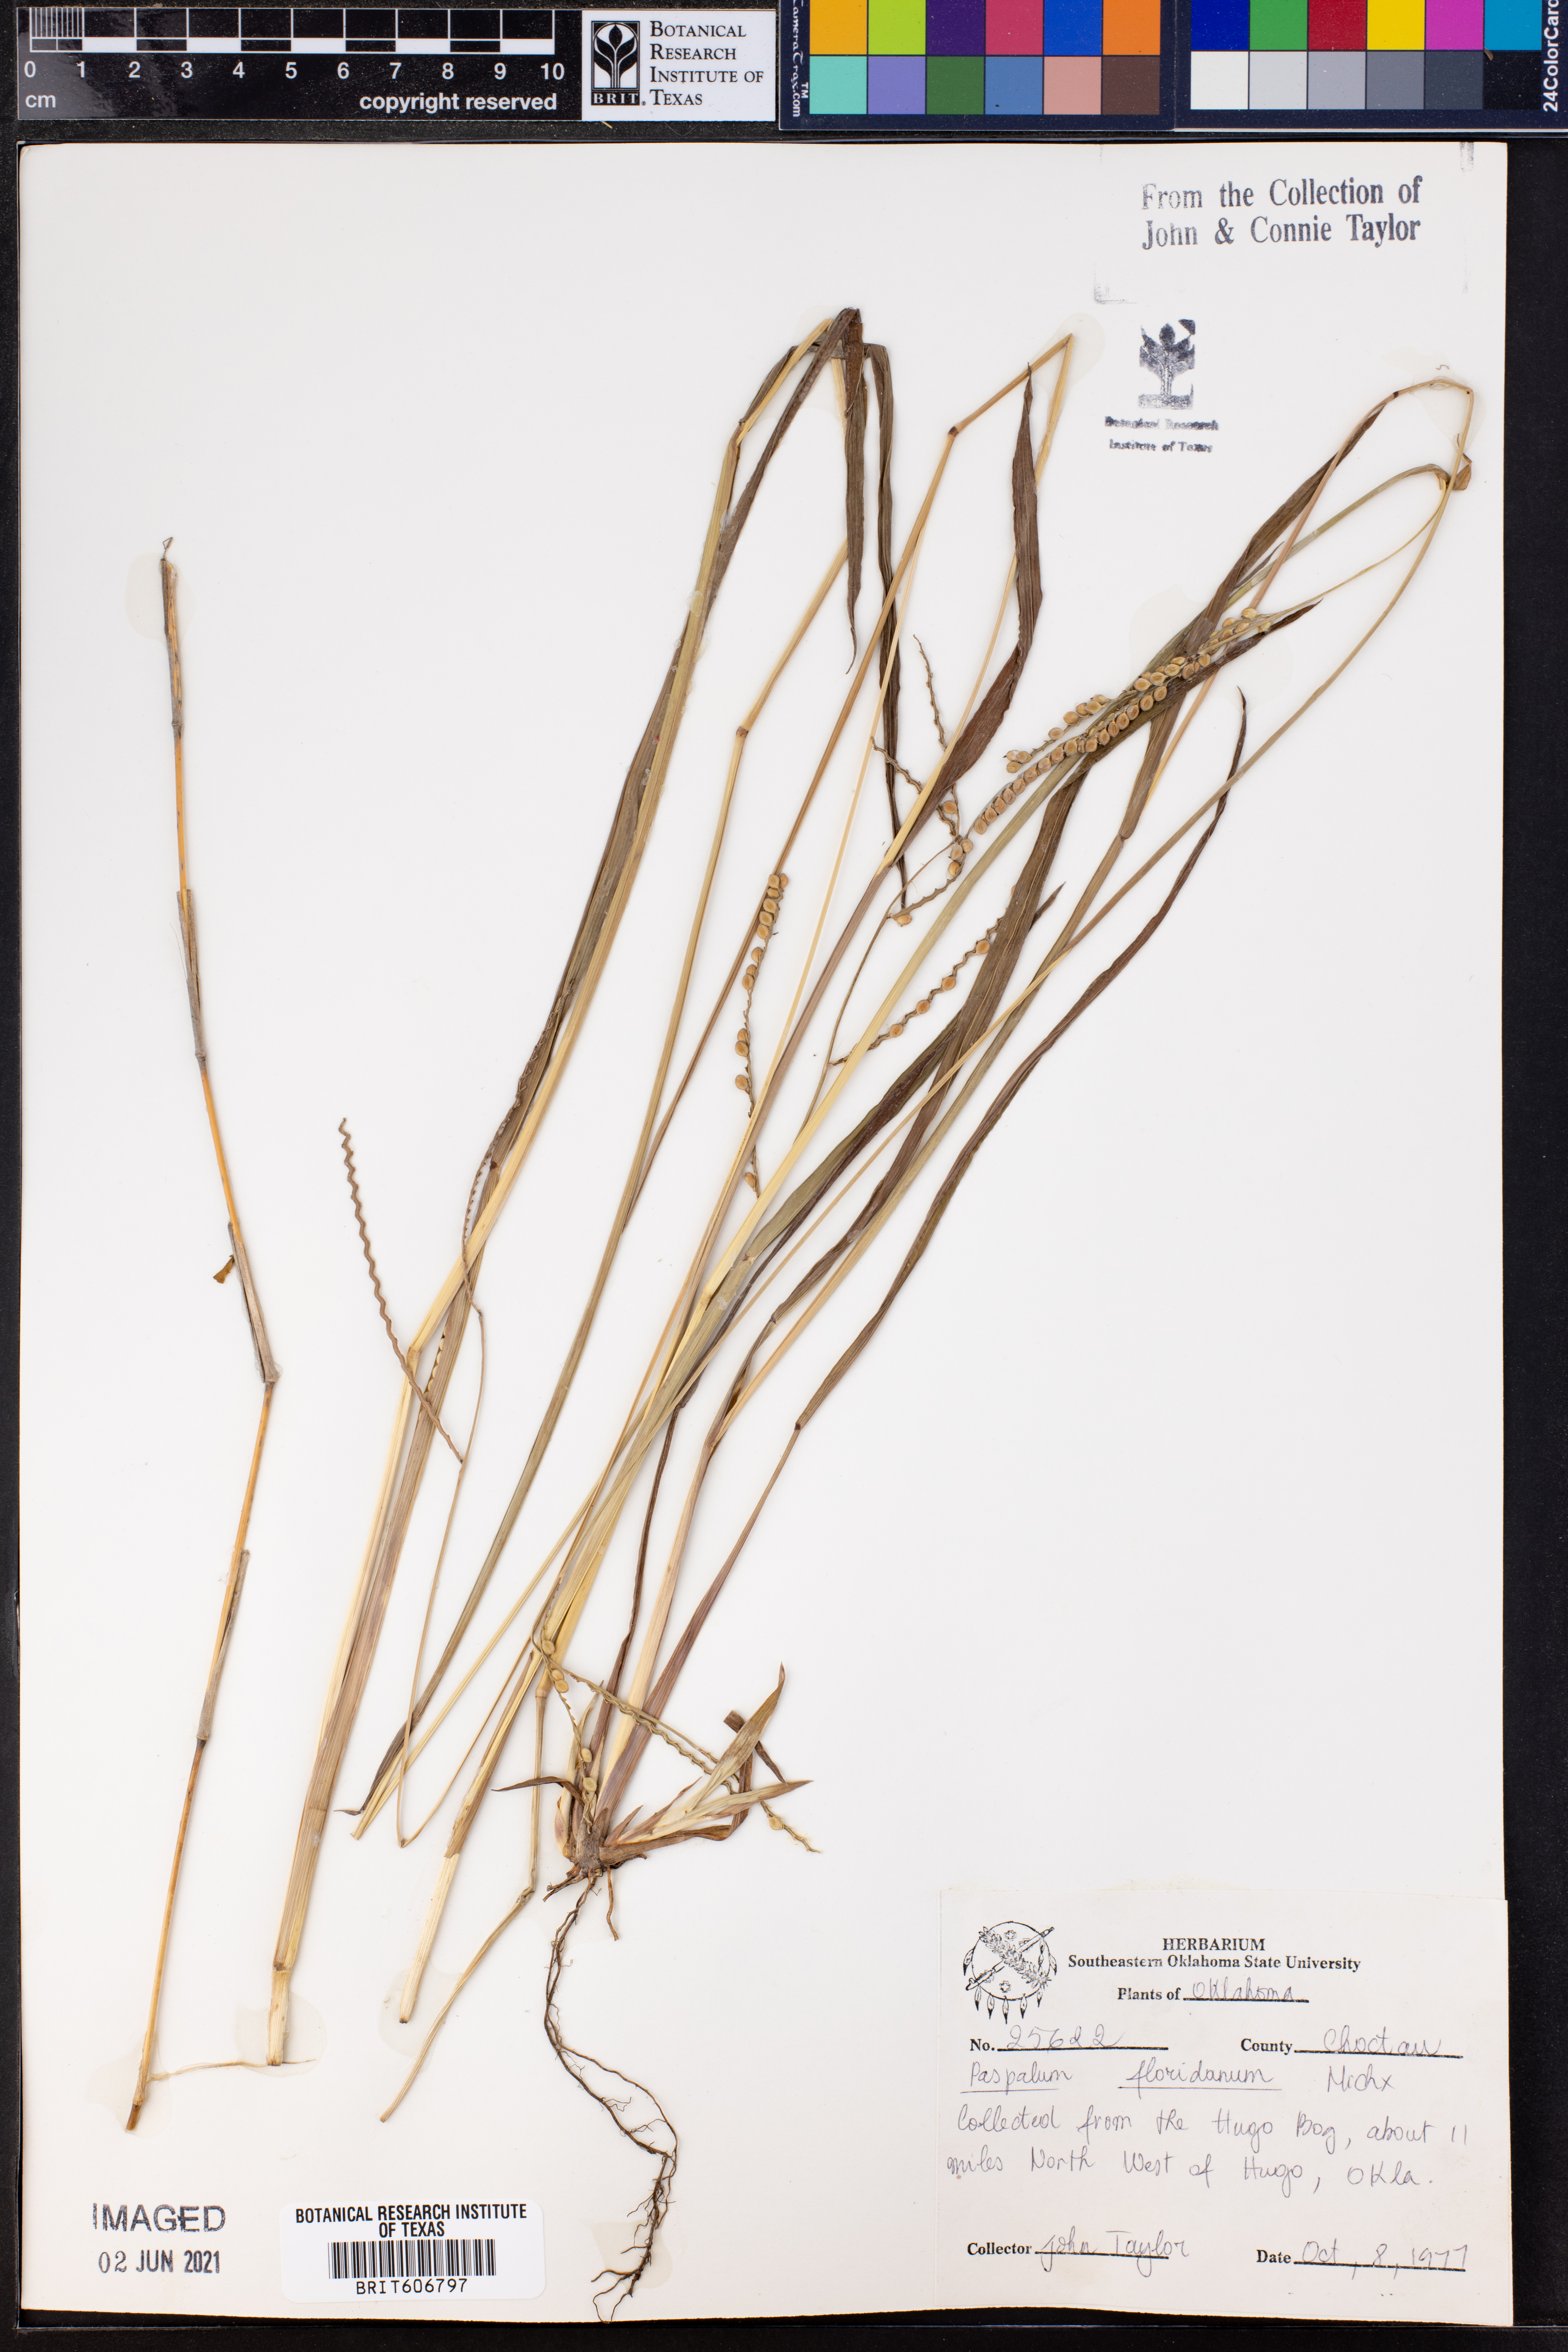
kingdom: Plantae
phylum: Tracheophyta
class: Liliopsida
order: Poales
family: Poaceae
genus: Paspalum
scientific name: Paspalum floridanum
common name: Florida paspalum
